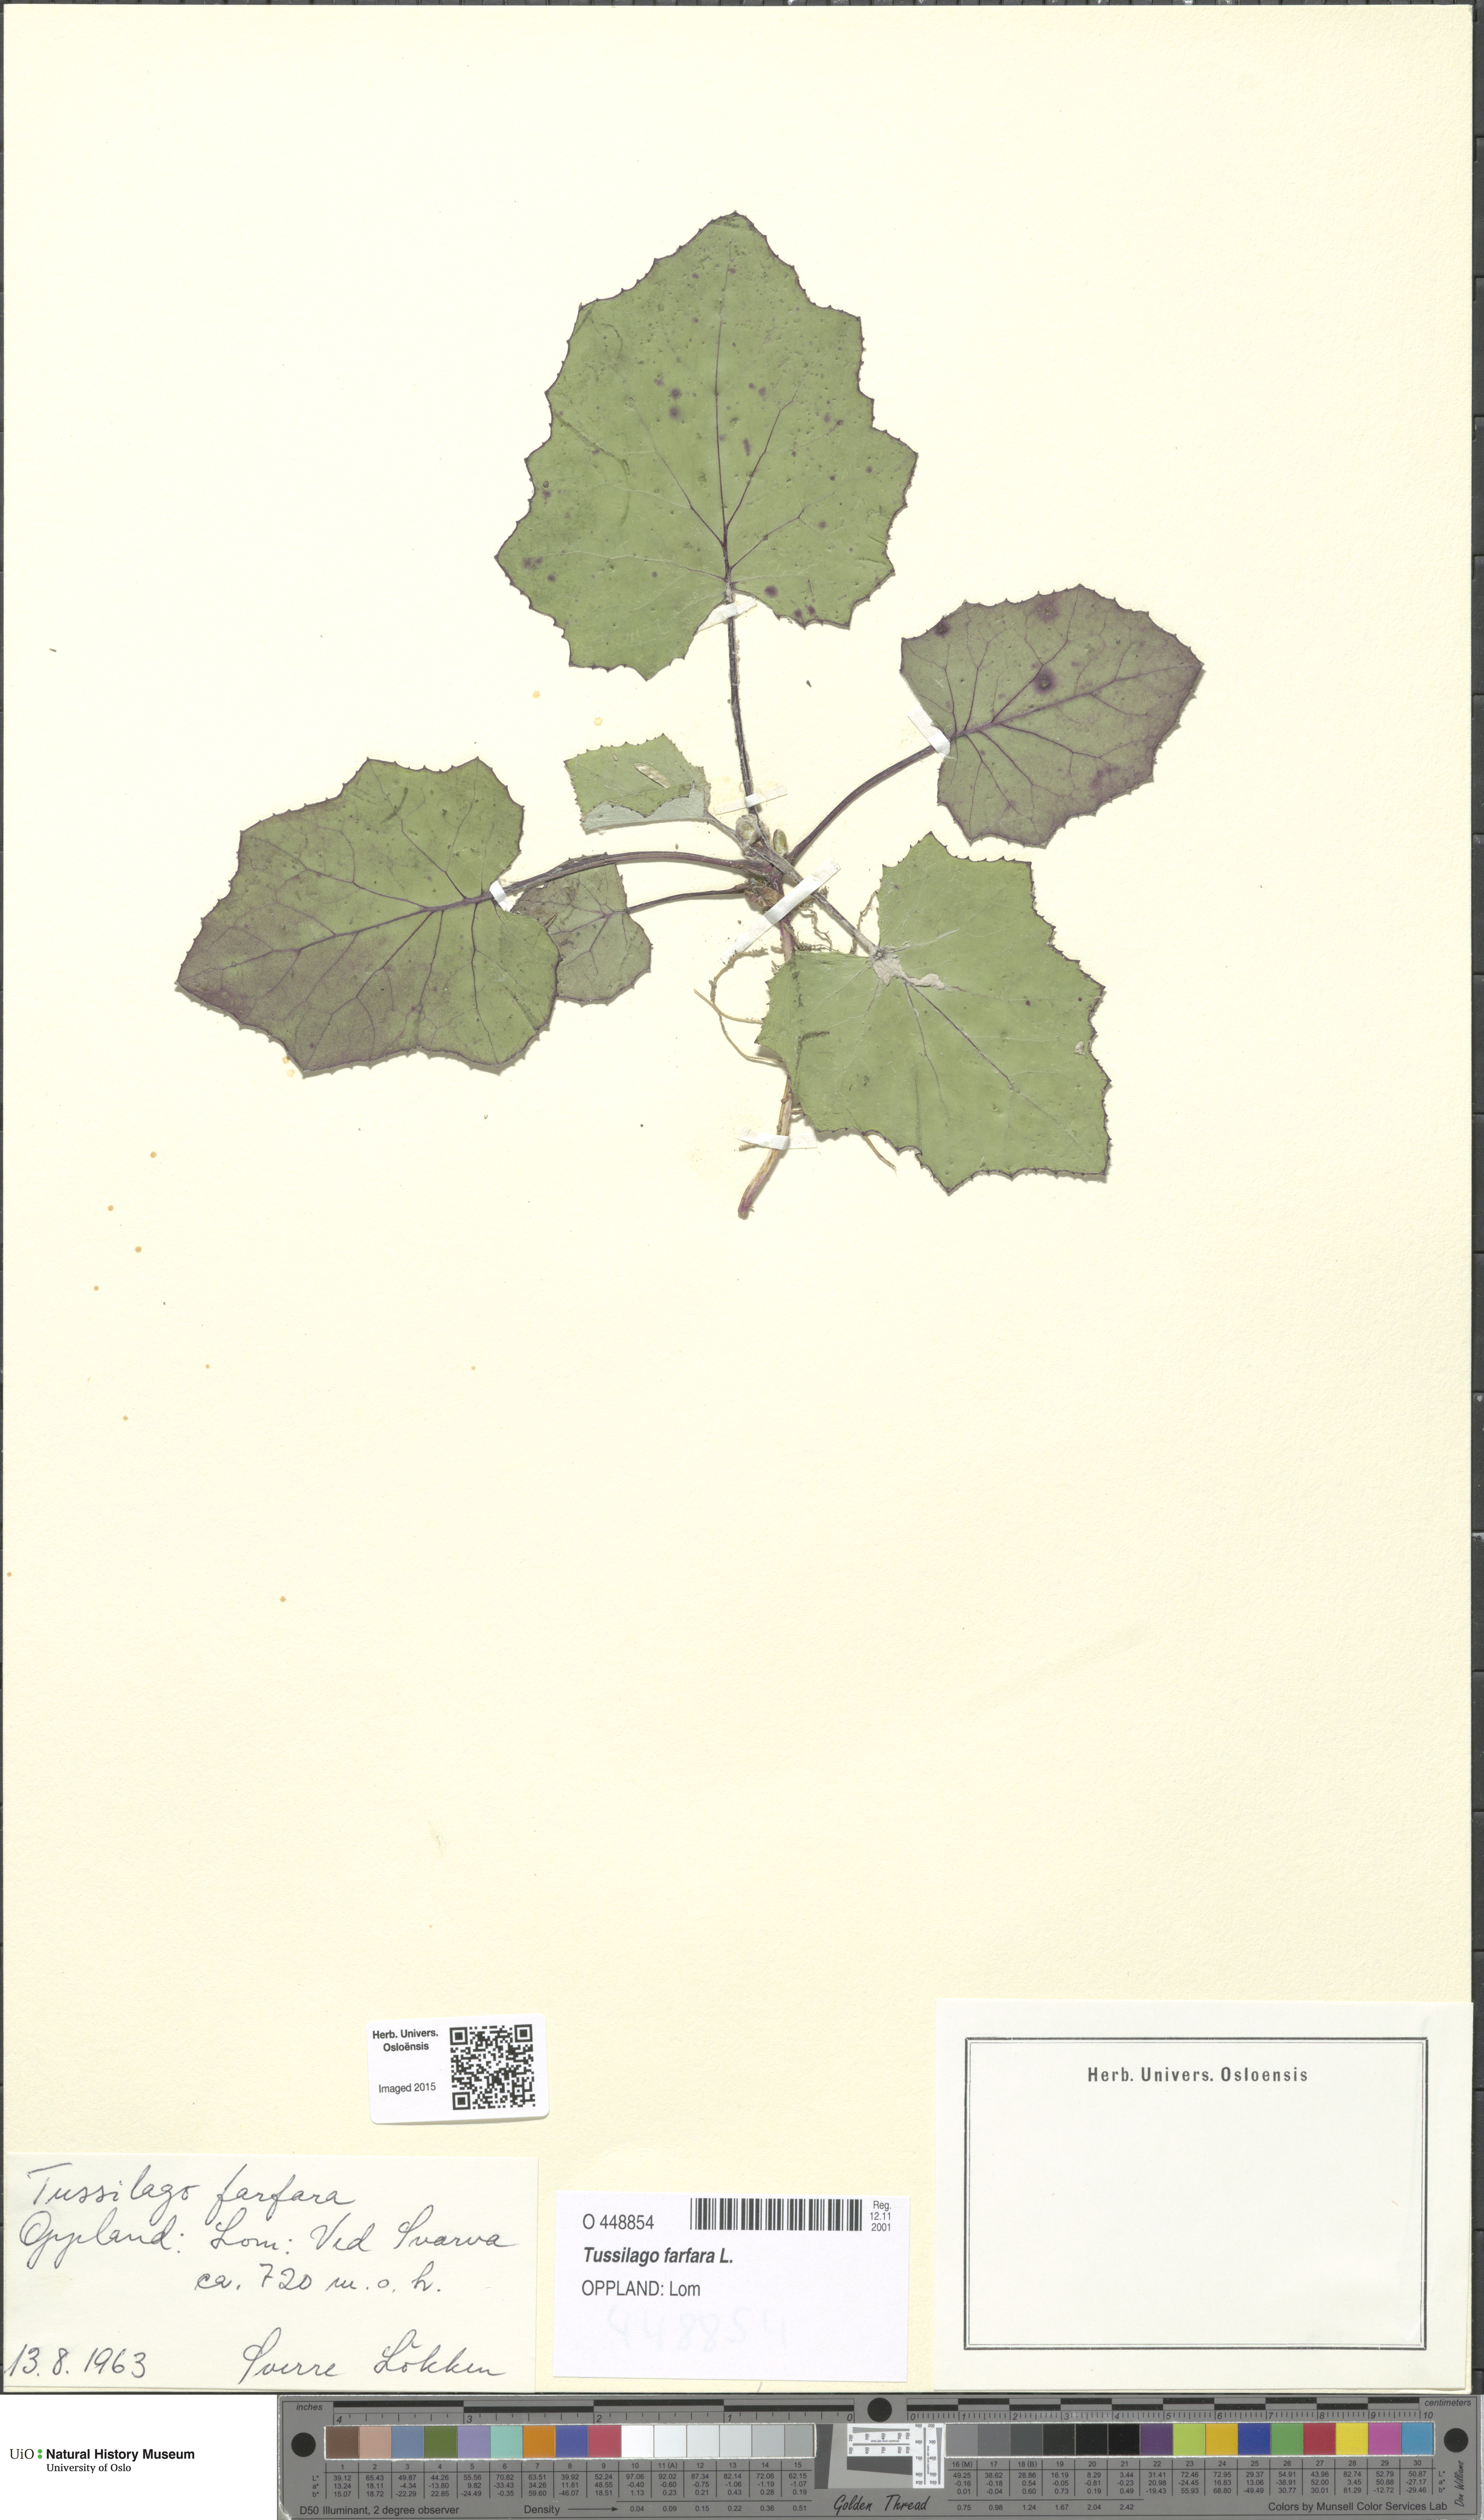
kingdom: Plantae
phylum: Tracheophyta
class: Magnoliopsida
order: Asterales
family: Asteraceae
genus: Tussilago
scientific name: Tussilago farfara
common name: Coltsfoot
